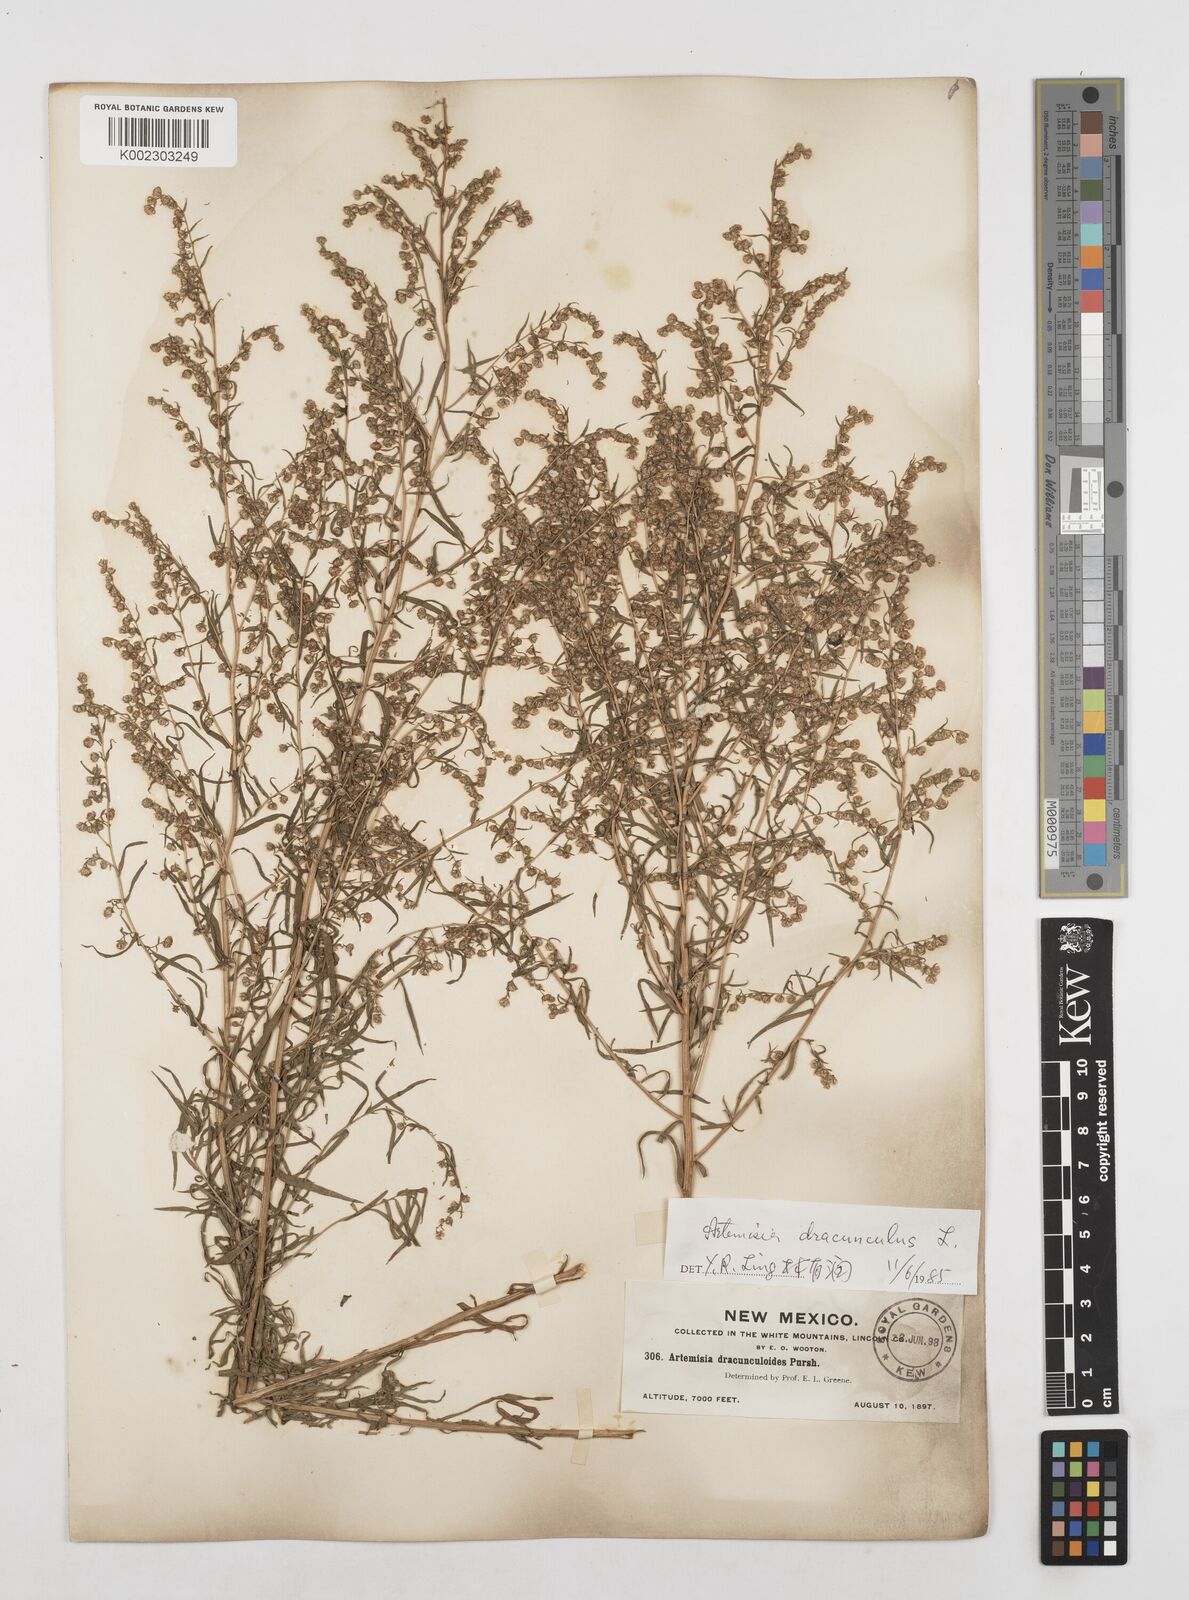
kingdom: Plantae
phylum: Tracheophyta
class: Magnoliopsida
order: Asterales
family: Asteraceae
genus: Artemisia
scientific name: Artemisia dracunculus
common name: Tarragon
